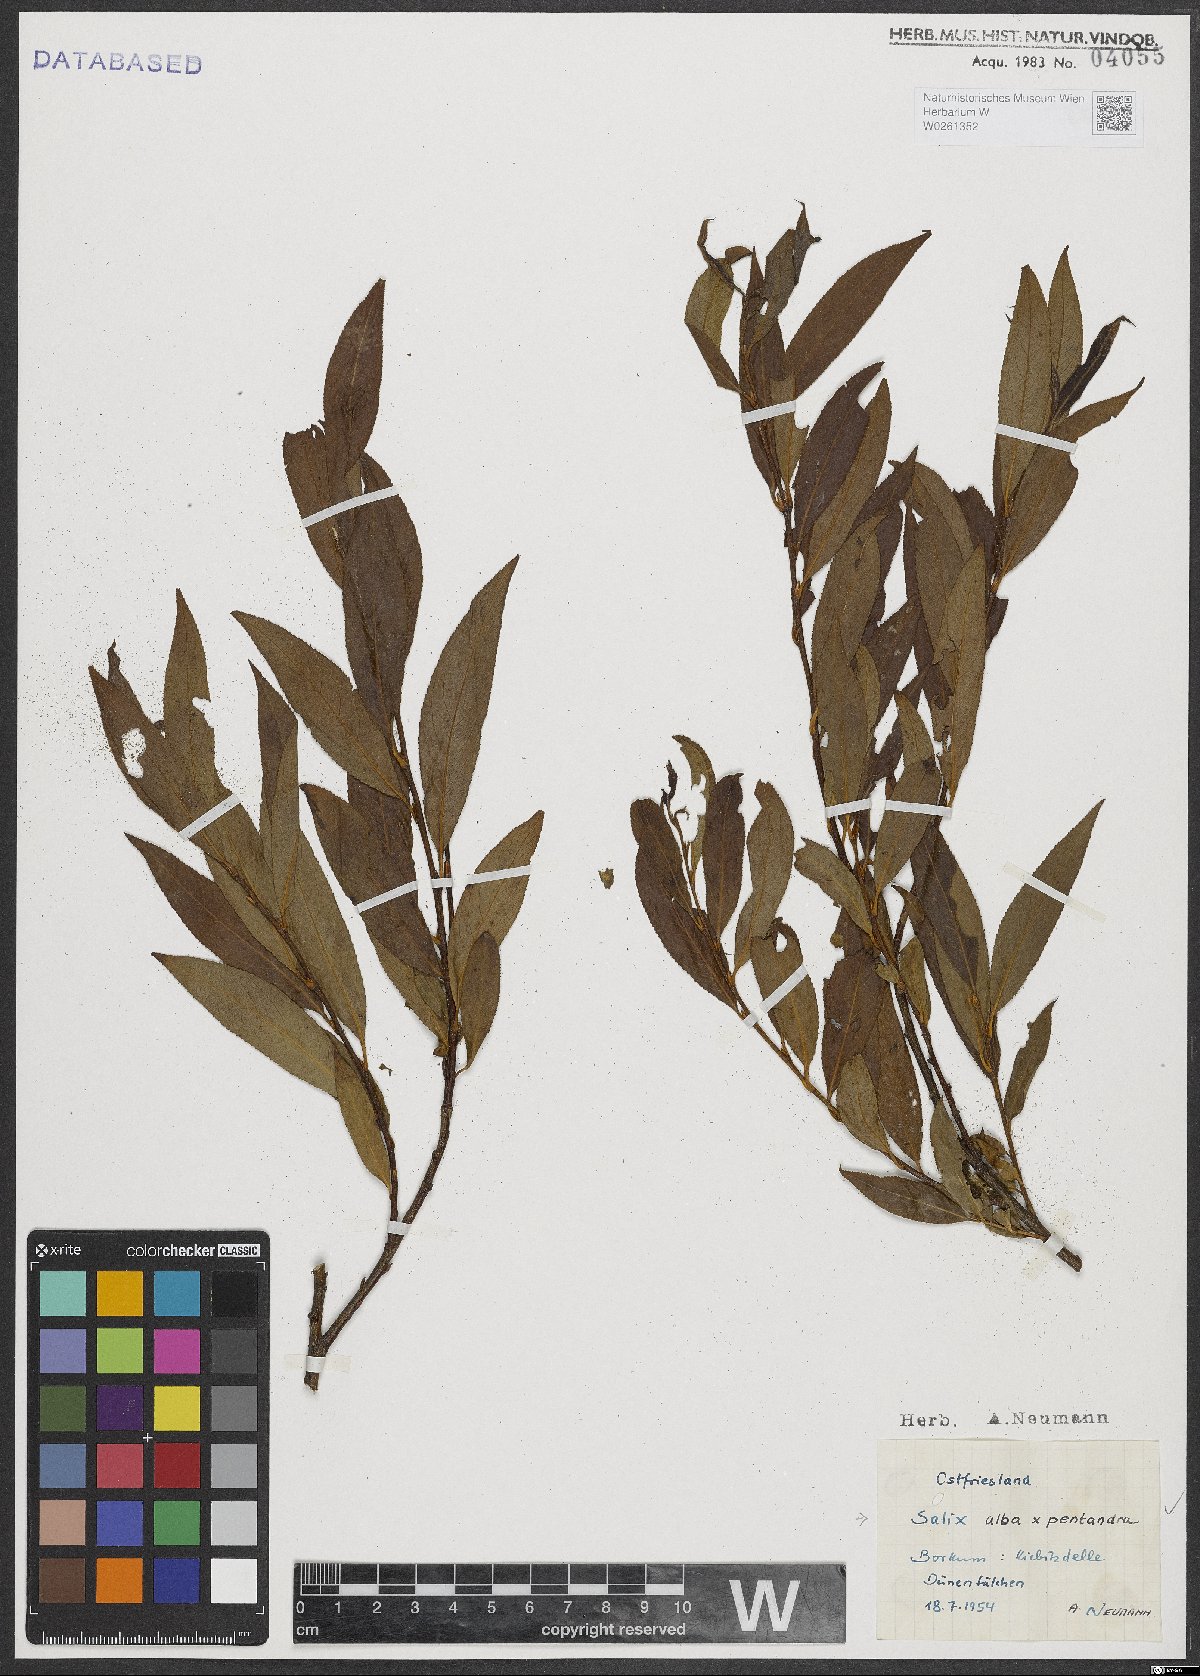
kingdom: Plantae
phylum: Tracheophyta
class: Magnoliopsida
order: Malpighiales
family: Salicaceae
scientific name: Salicaceae
